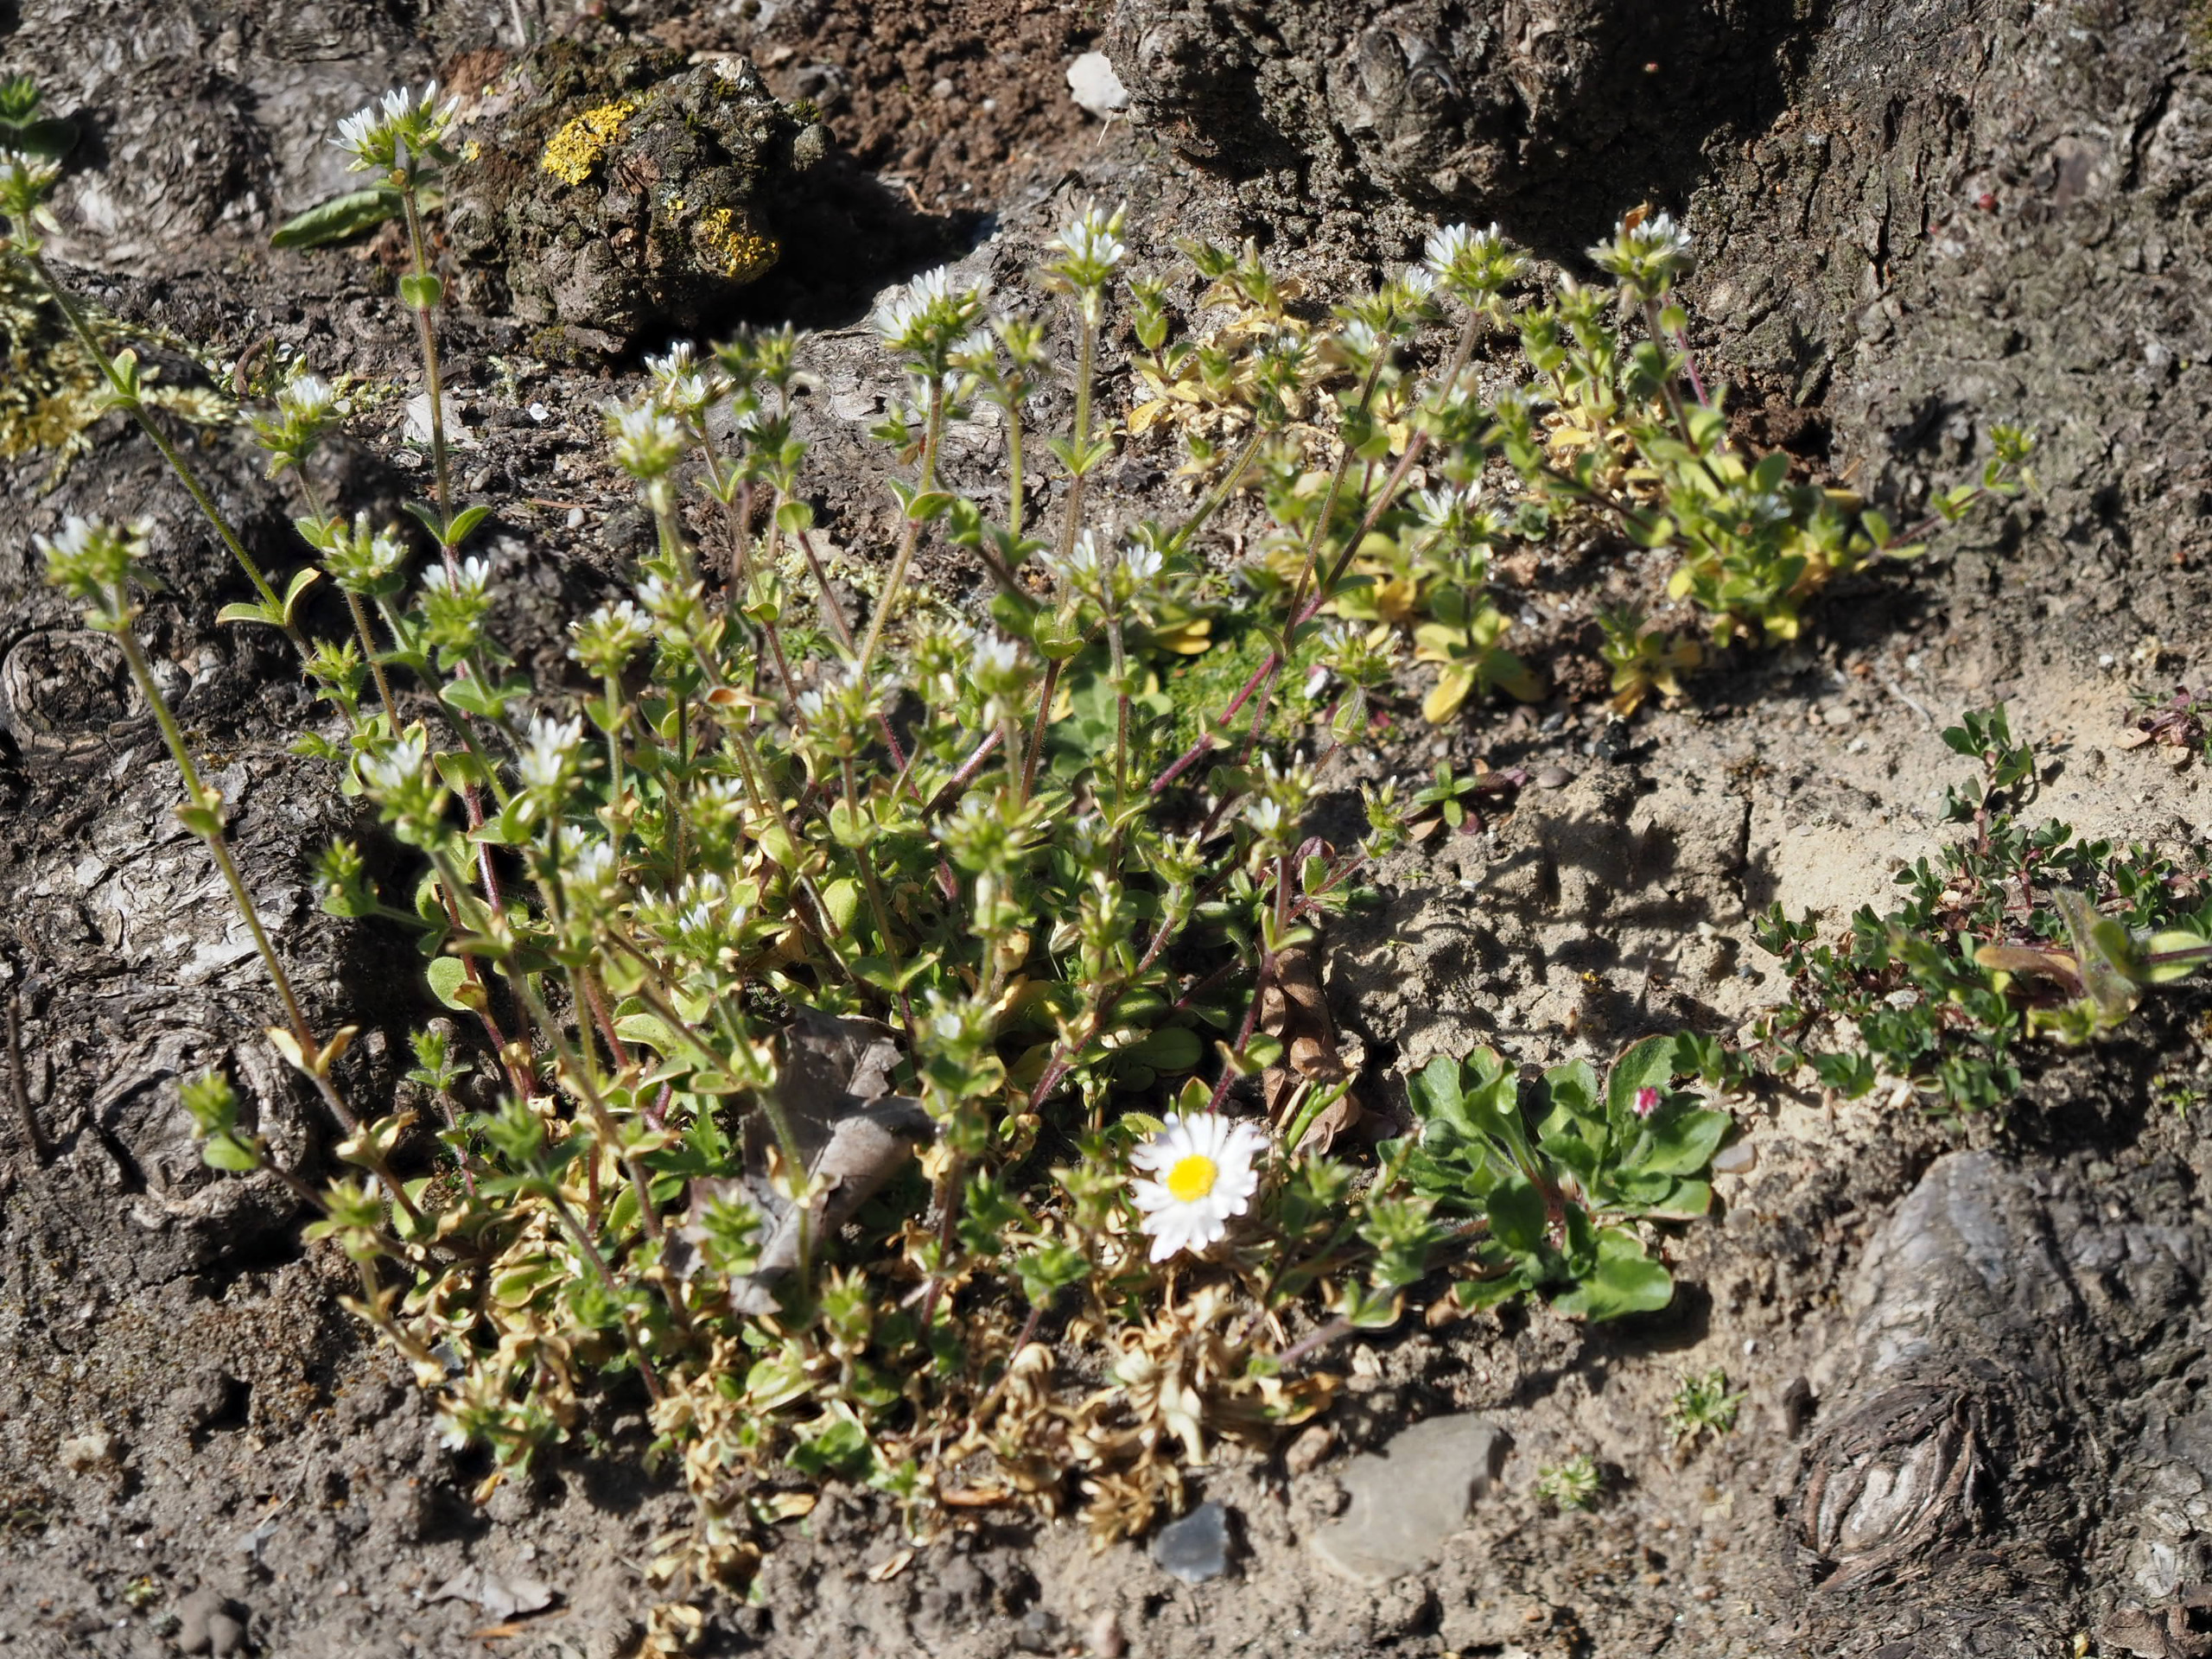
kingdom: Plantae
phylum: Tracheophyta
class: Magnoliopsida
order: Caryophyllales
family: Caryophyllaceae
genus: Cerastium
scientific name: Cerastium glomeratum
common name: Opret hønsetarm
